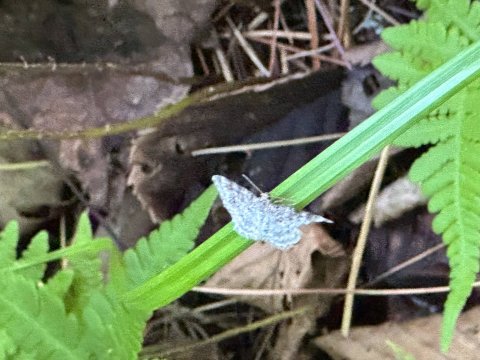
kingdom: Animalia
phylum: Arthropoda
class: Insecta
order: Lepidoptera
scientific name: Lepidoptera
